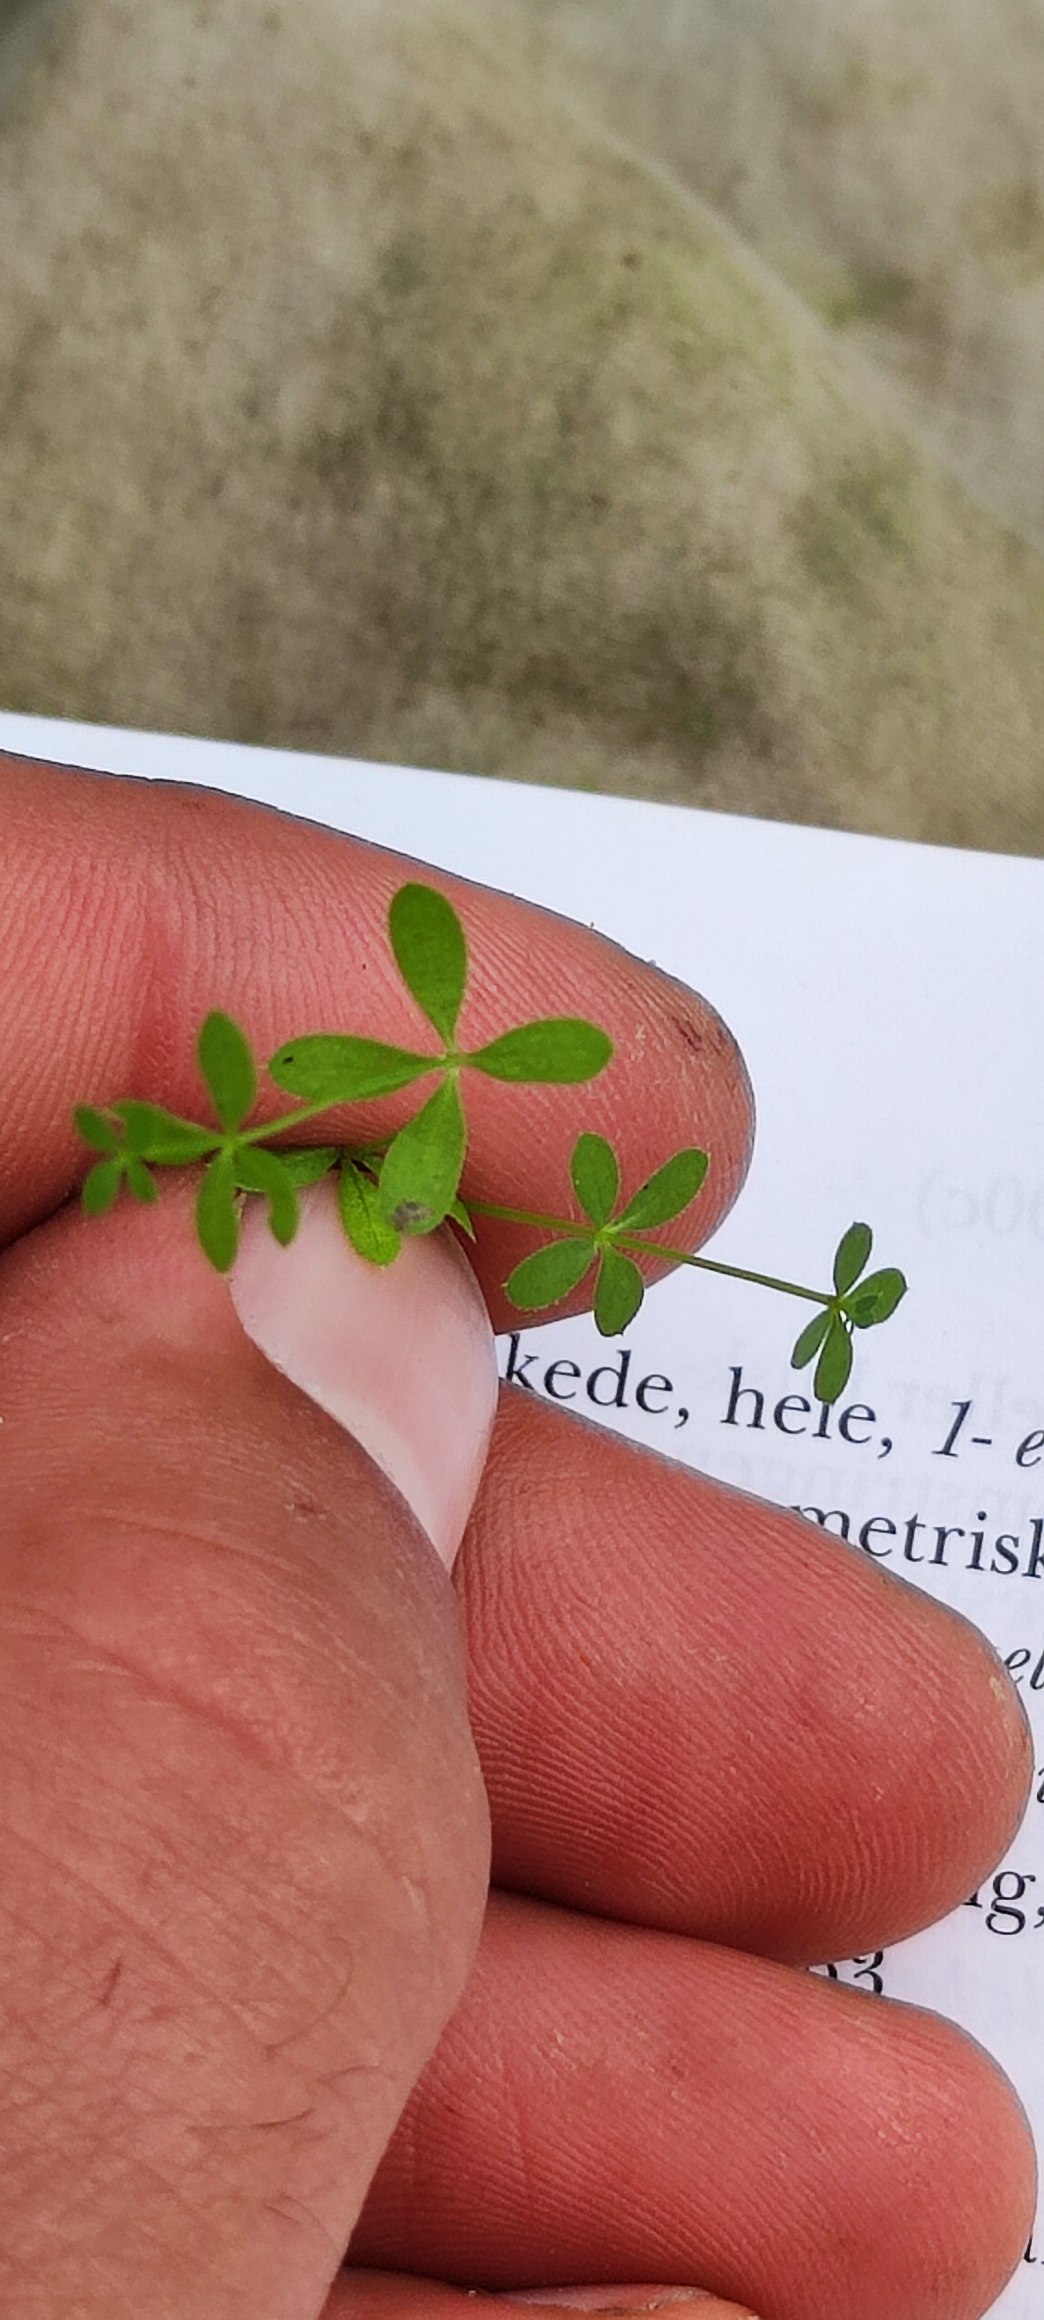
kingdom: Plantae
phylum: Tracheophyta
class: Magnoliopsida
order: Gentianales
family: Rubiaceae
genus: Galium
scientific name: Galium palustre
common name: Kær-snerre
